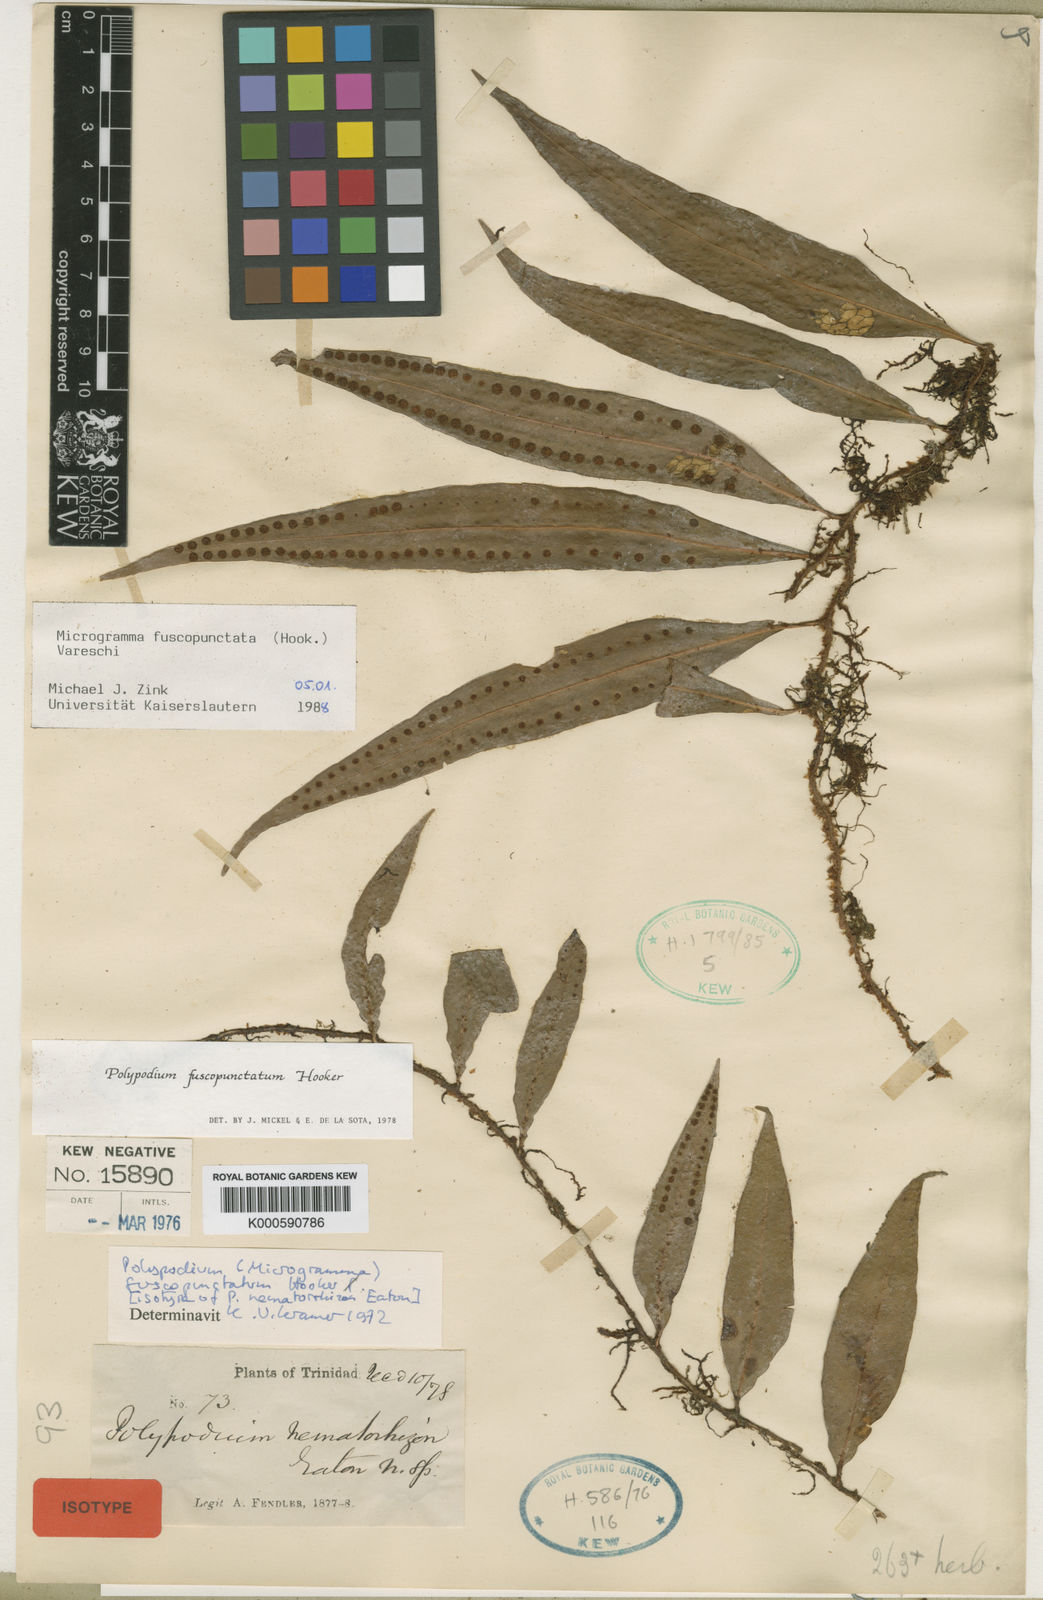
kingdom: Plantae
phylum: Tracheophyta
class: Polypodiopsida
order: Polypodiales
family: Polypodiaceae
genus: Microgramma
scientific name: Microgramma dictyophylla
